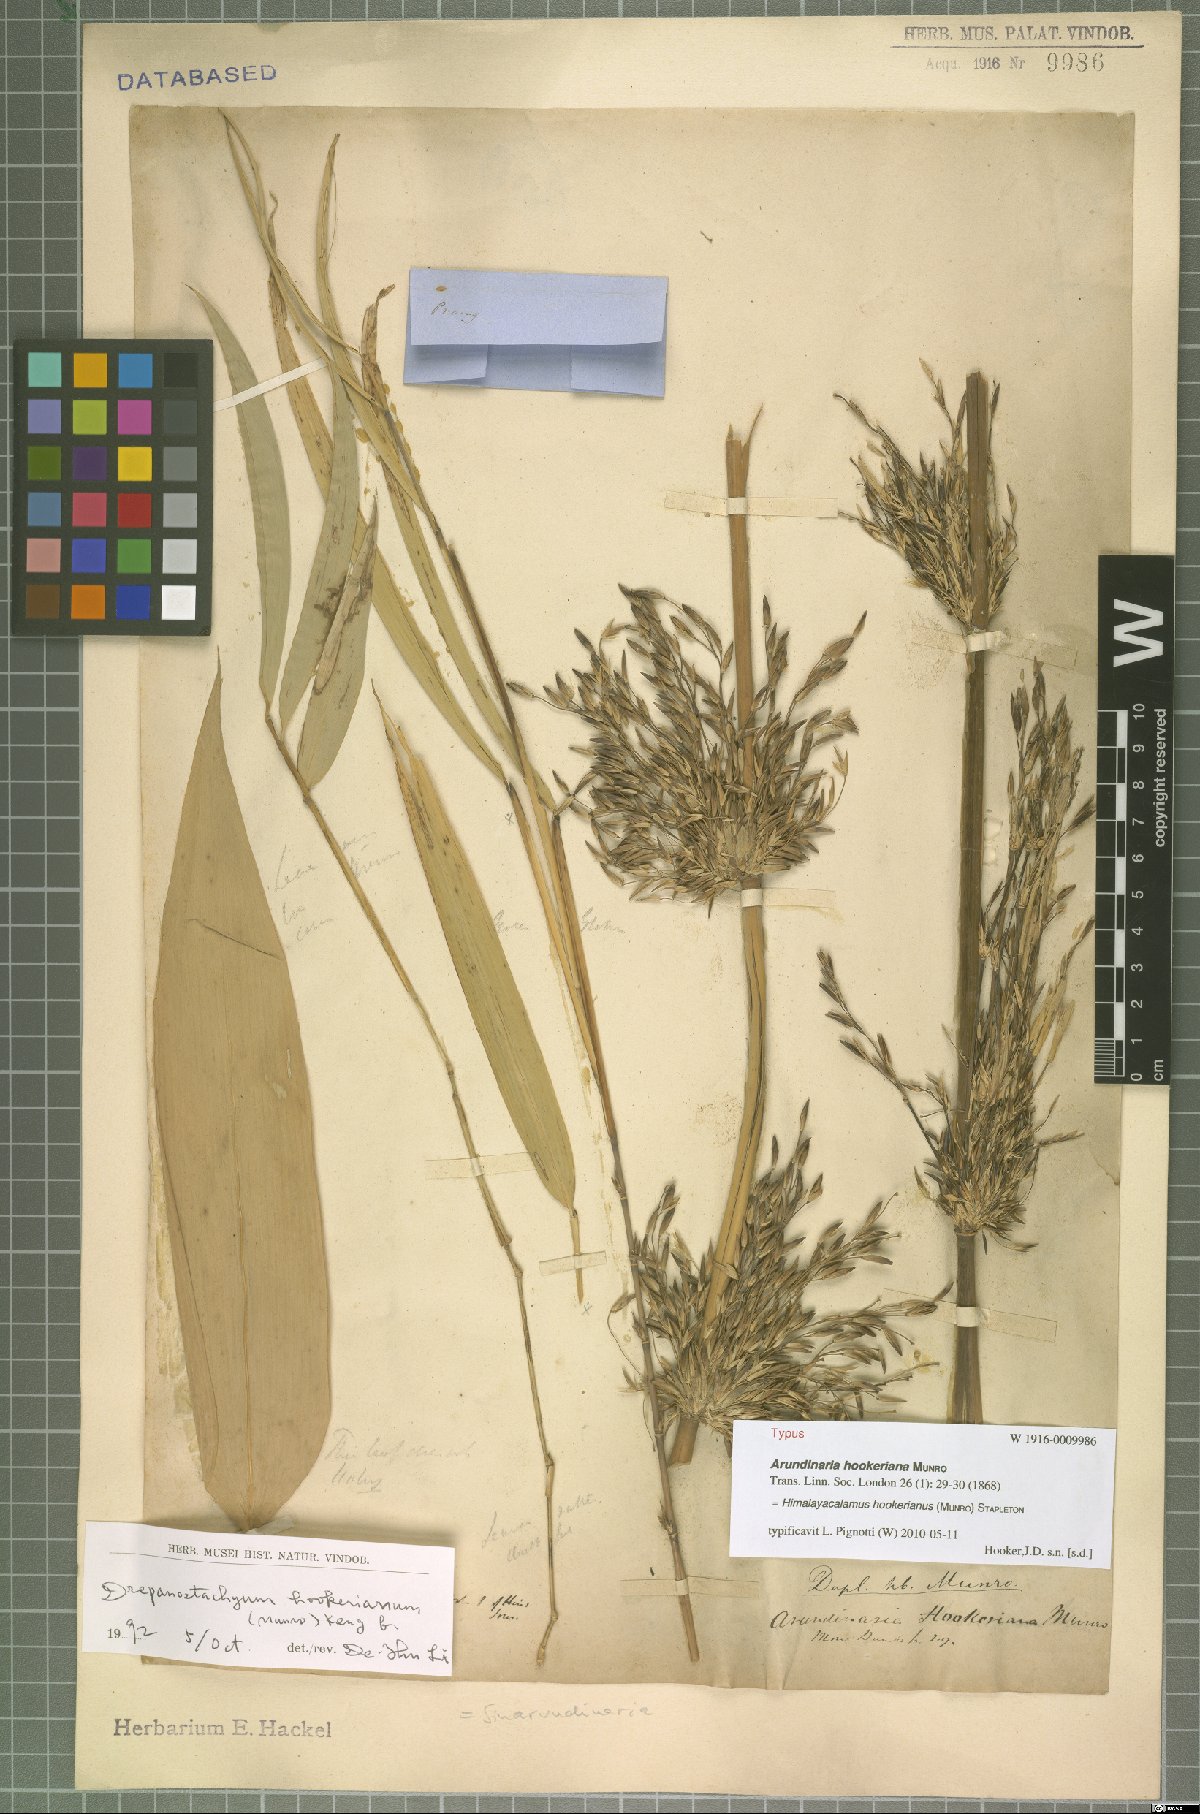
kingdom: Plantae
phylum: Tracheophyta
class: Liliopsida
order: Poales
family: Poaceae
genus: Himalayacalamus
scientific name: Himalayacalamus hookerianus
